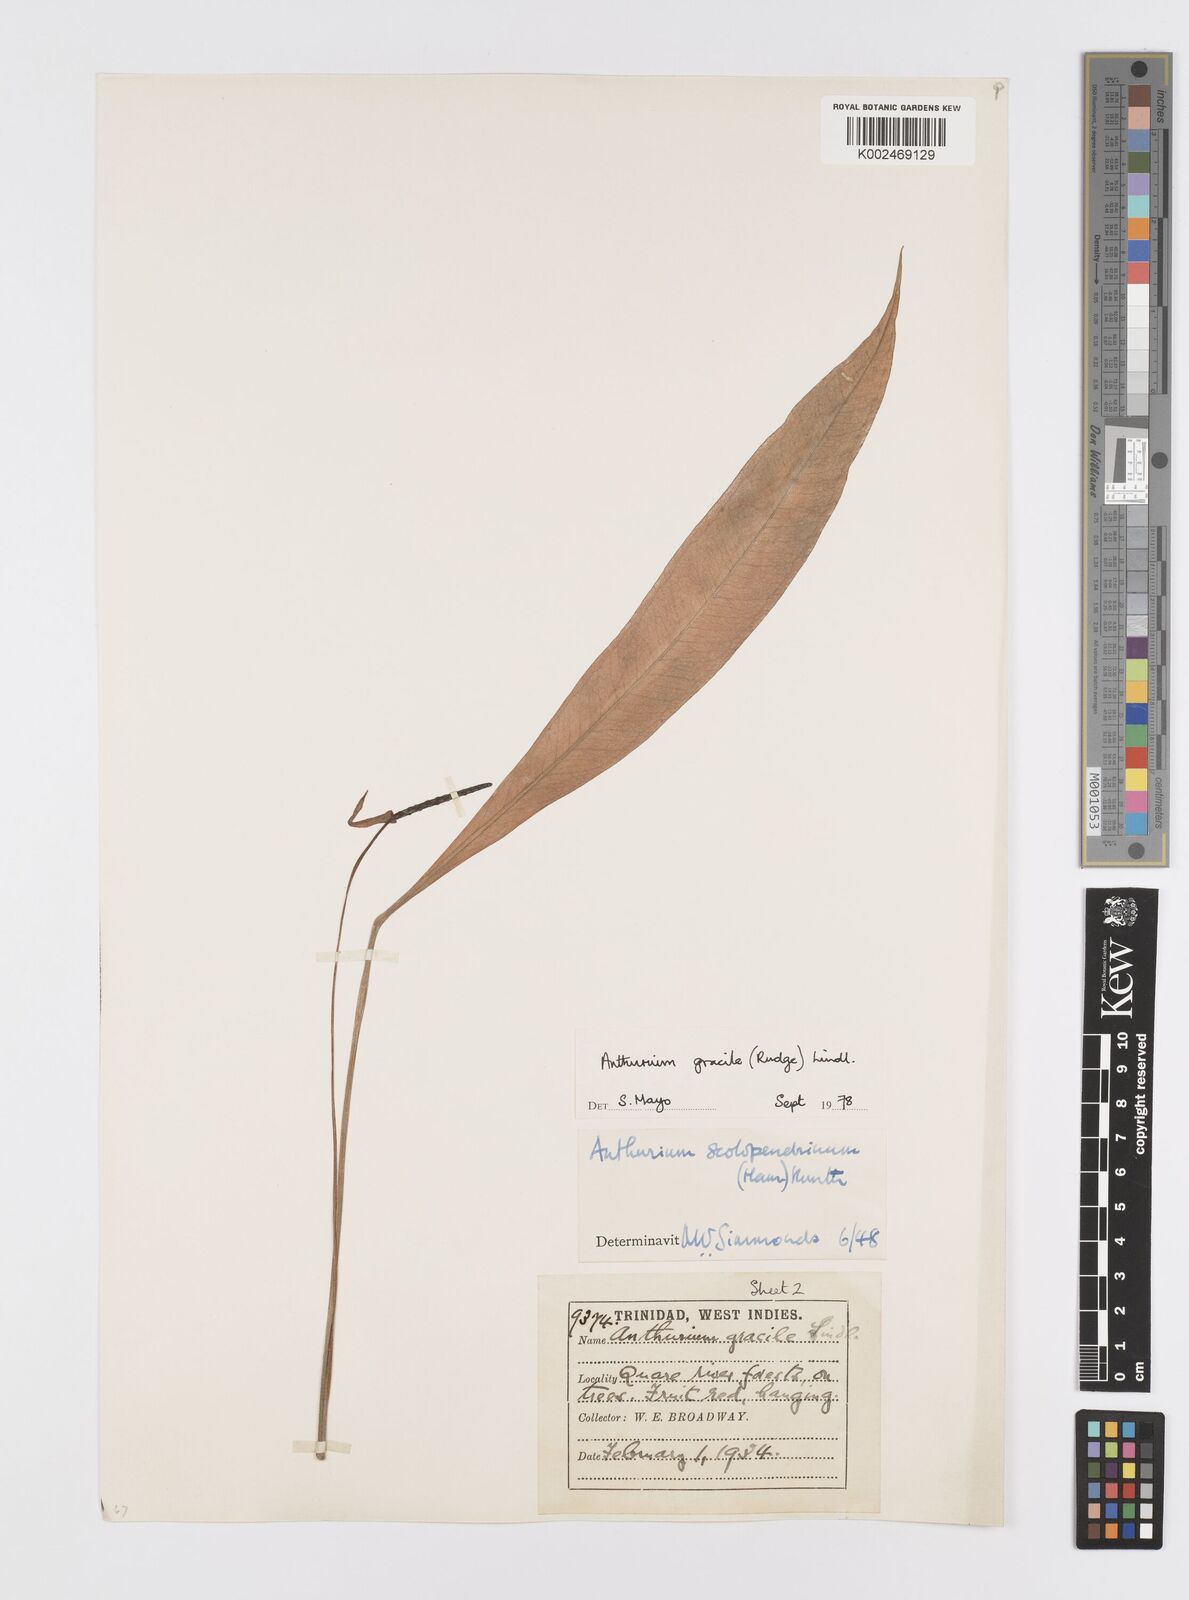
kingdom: Plantae
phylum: Tracheophyta
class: Liliopsida
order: Alismatales
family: Araceae
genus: Anthurium
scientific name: Anthurium gracile
